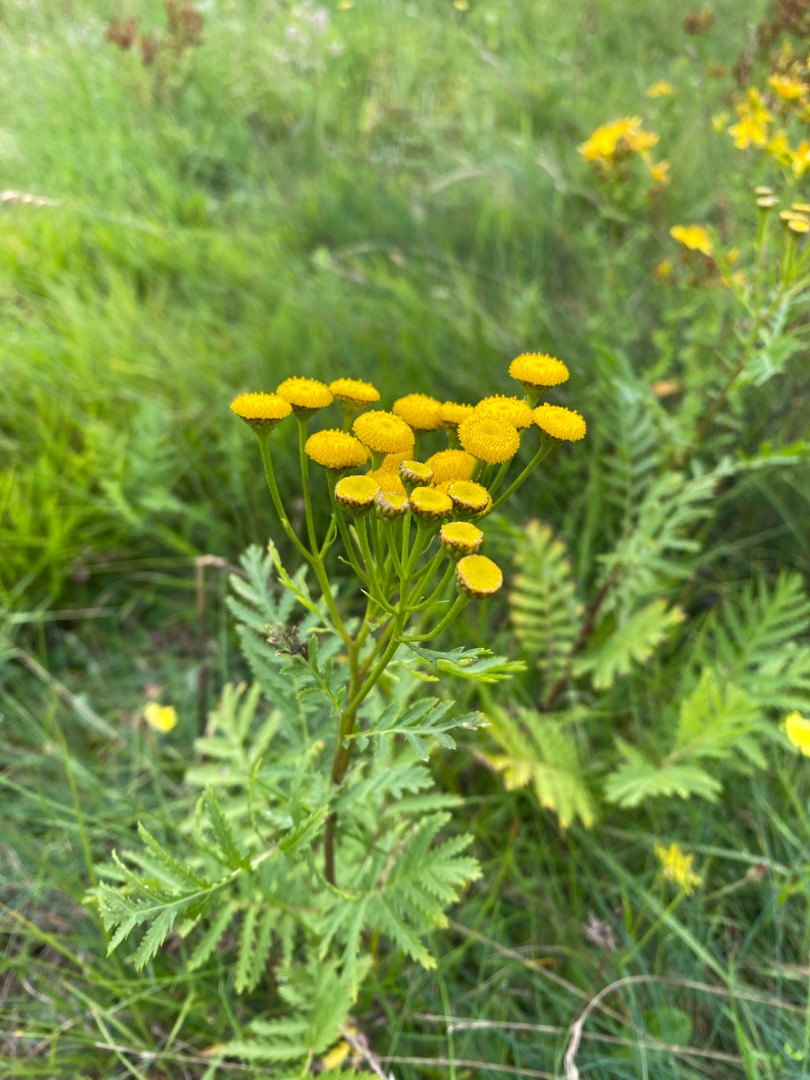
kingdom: Plantae
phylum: Tracheophyta
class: Magnoliopsida
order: Asterales
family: Asteraceae
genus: Tanacetum
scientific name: Tanacetum vulgare
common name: Rejnfan
